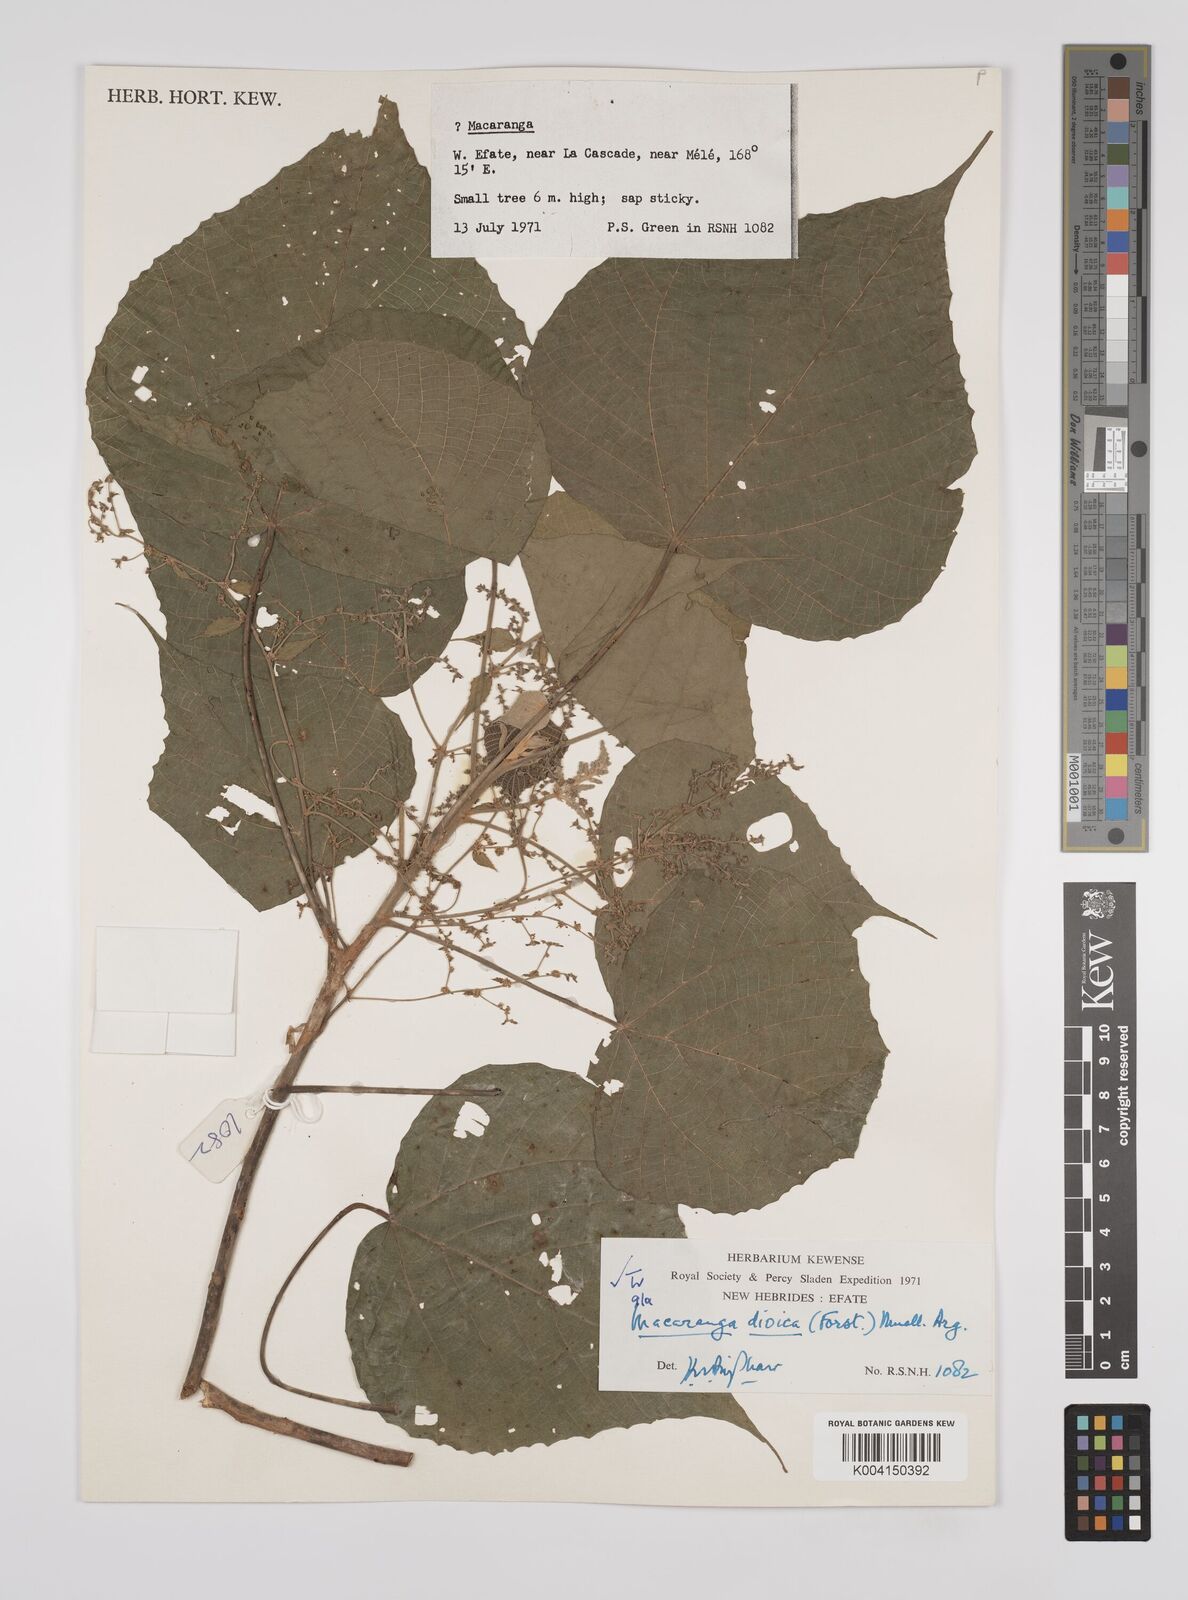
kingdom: Plantae
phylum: Tracheophyta
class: Magnoliopsida
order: Malpighiales
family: Euphorbiaceae
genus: Macaranga
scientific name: Macaranga dioica
